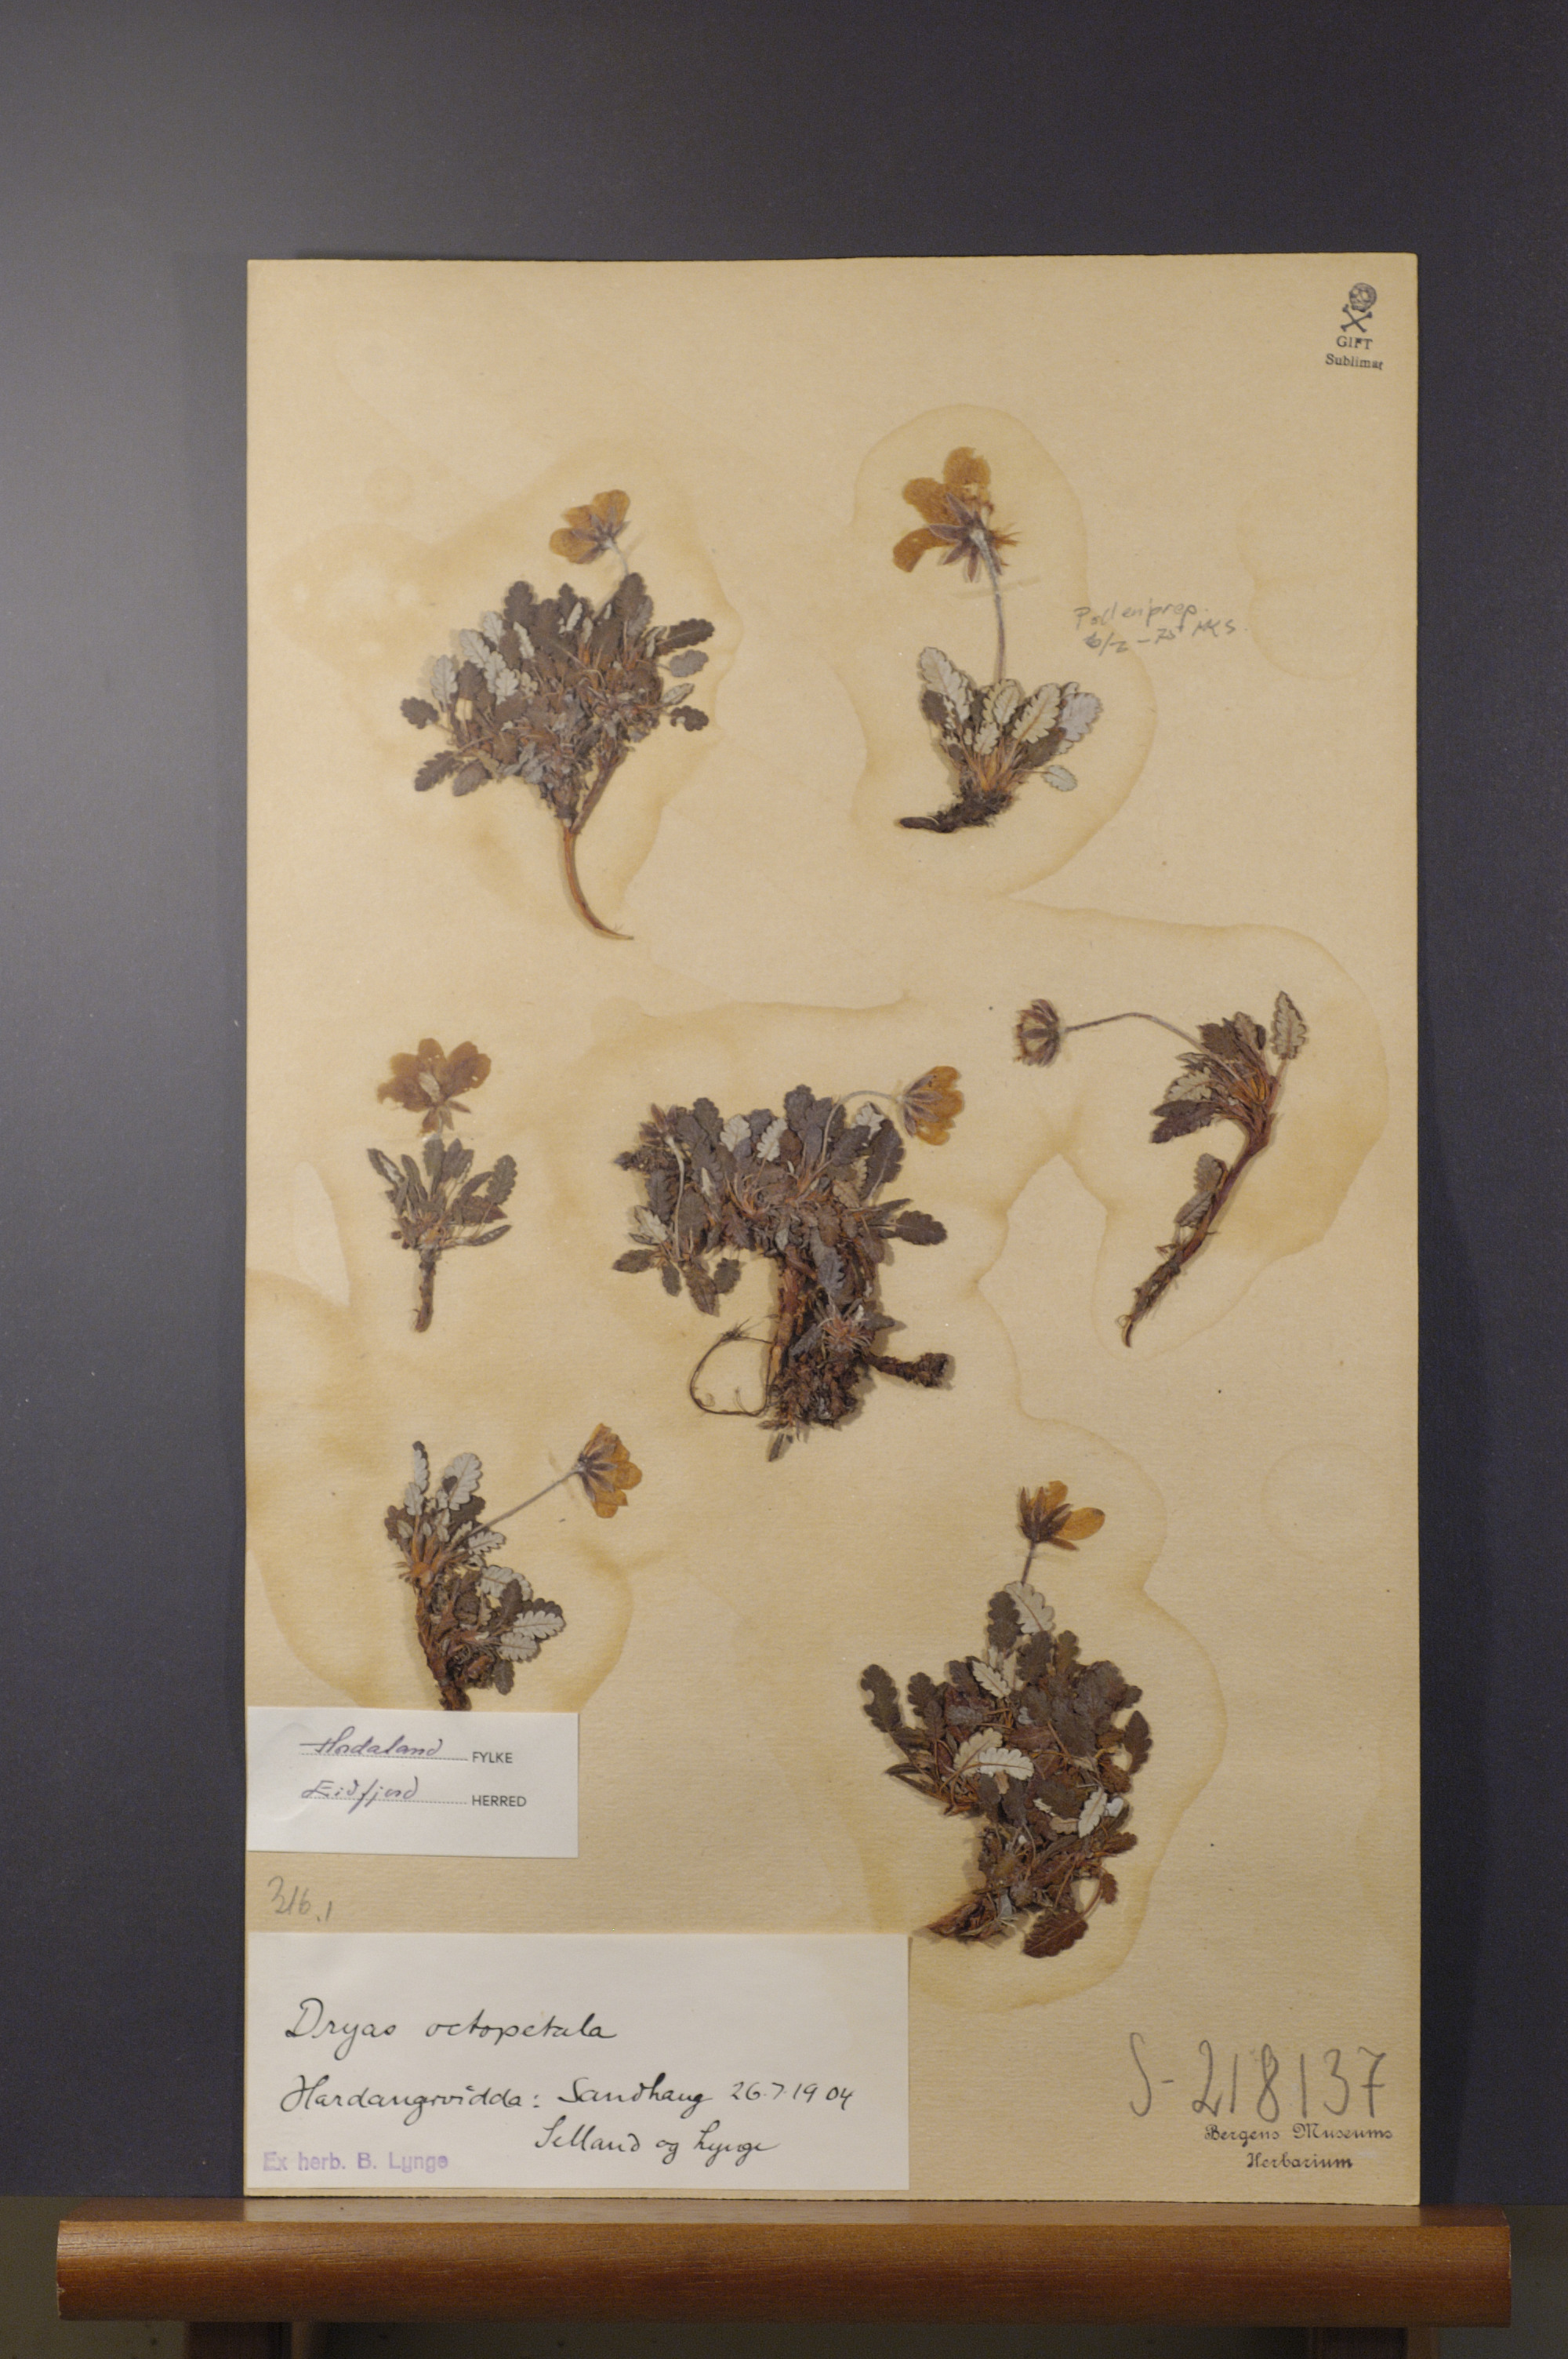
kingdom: Plantae
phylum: Tracheophyta
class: Magnoliopsida
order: Rosales
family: Rosaceae
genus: Dryas
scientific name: Dryas octopetala
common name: Eight-petal mountain-avens
